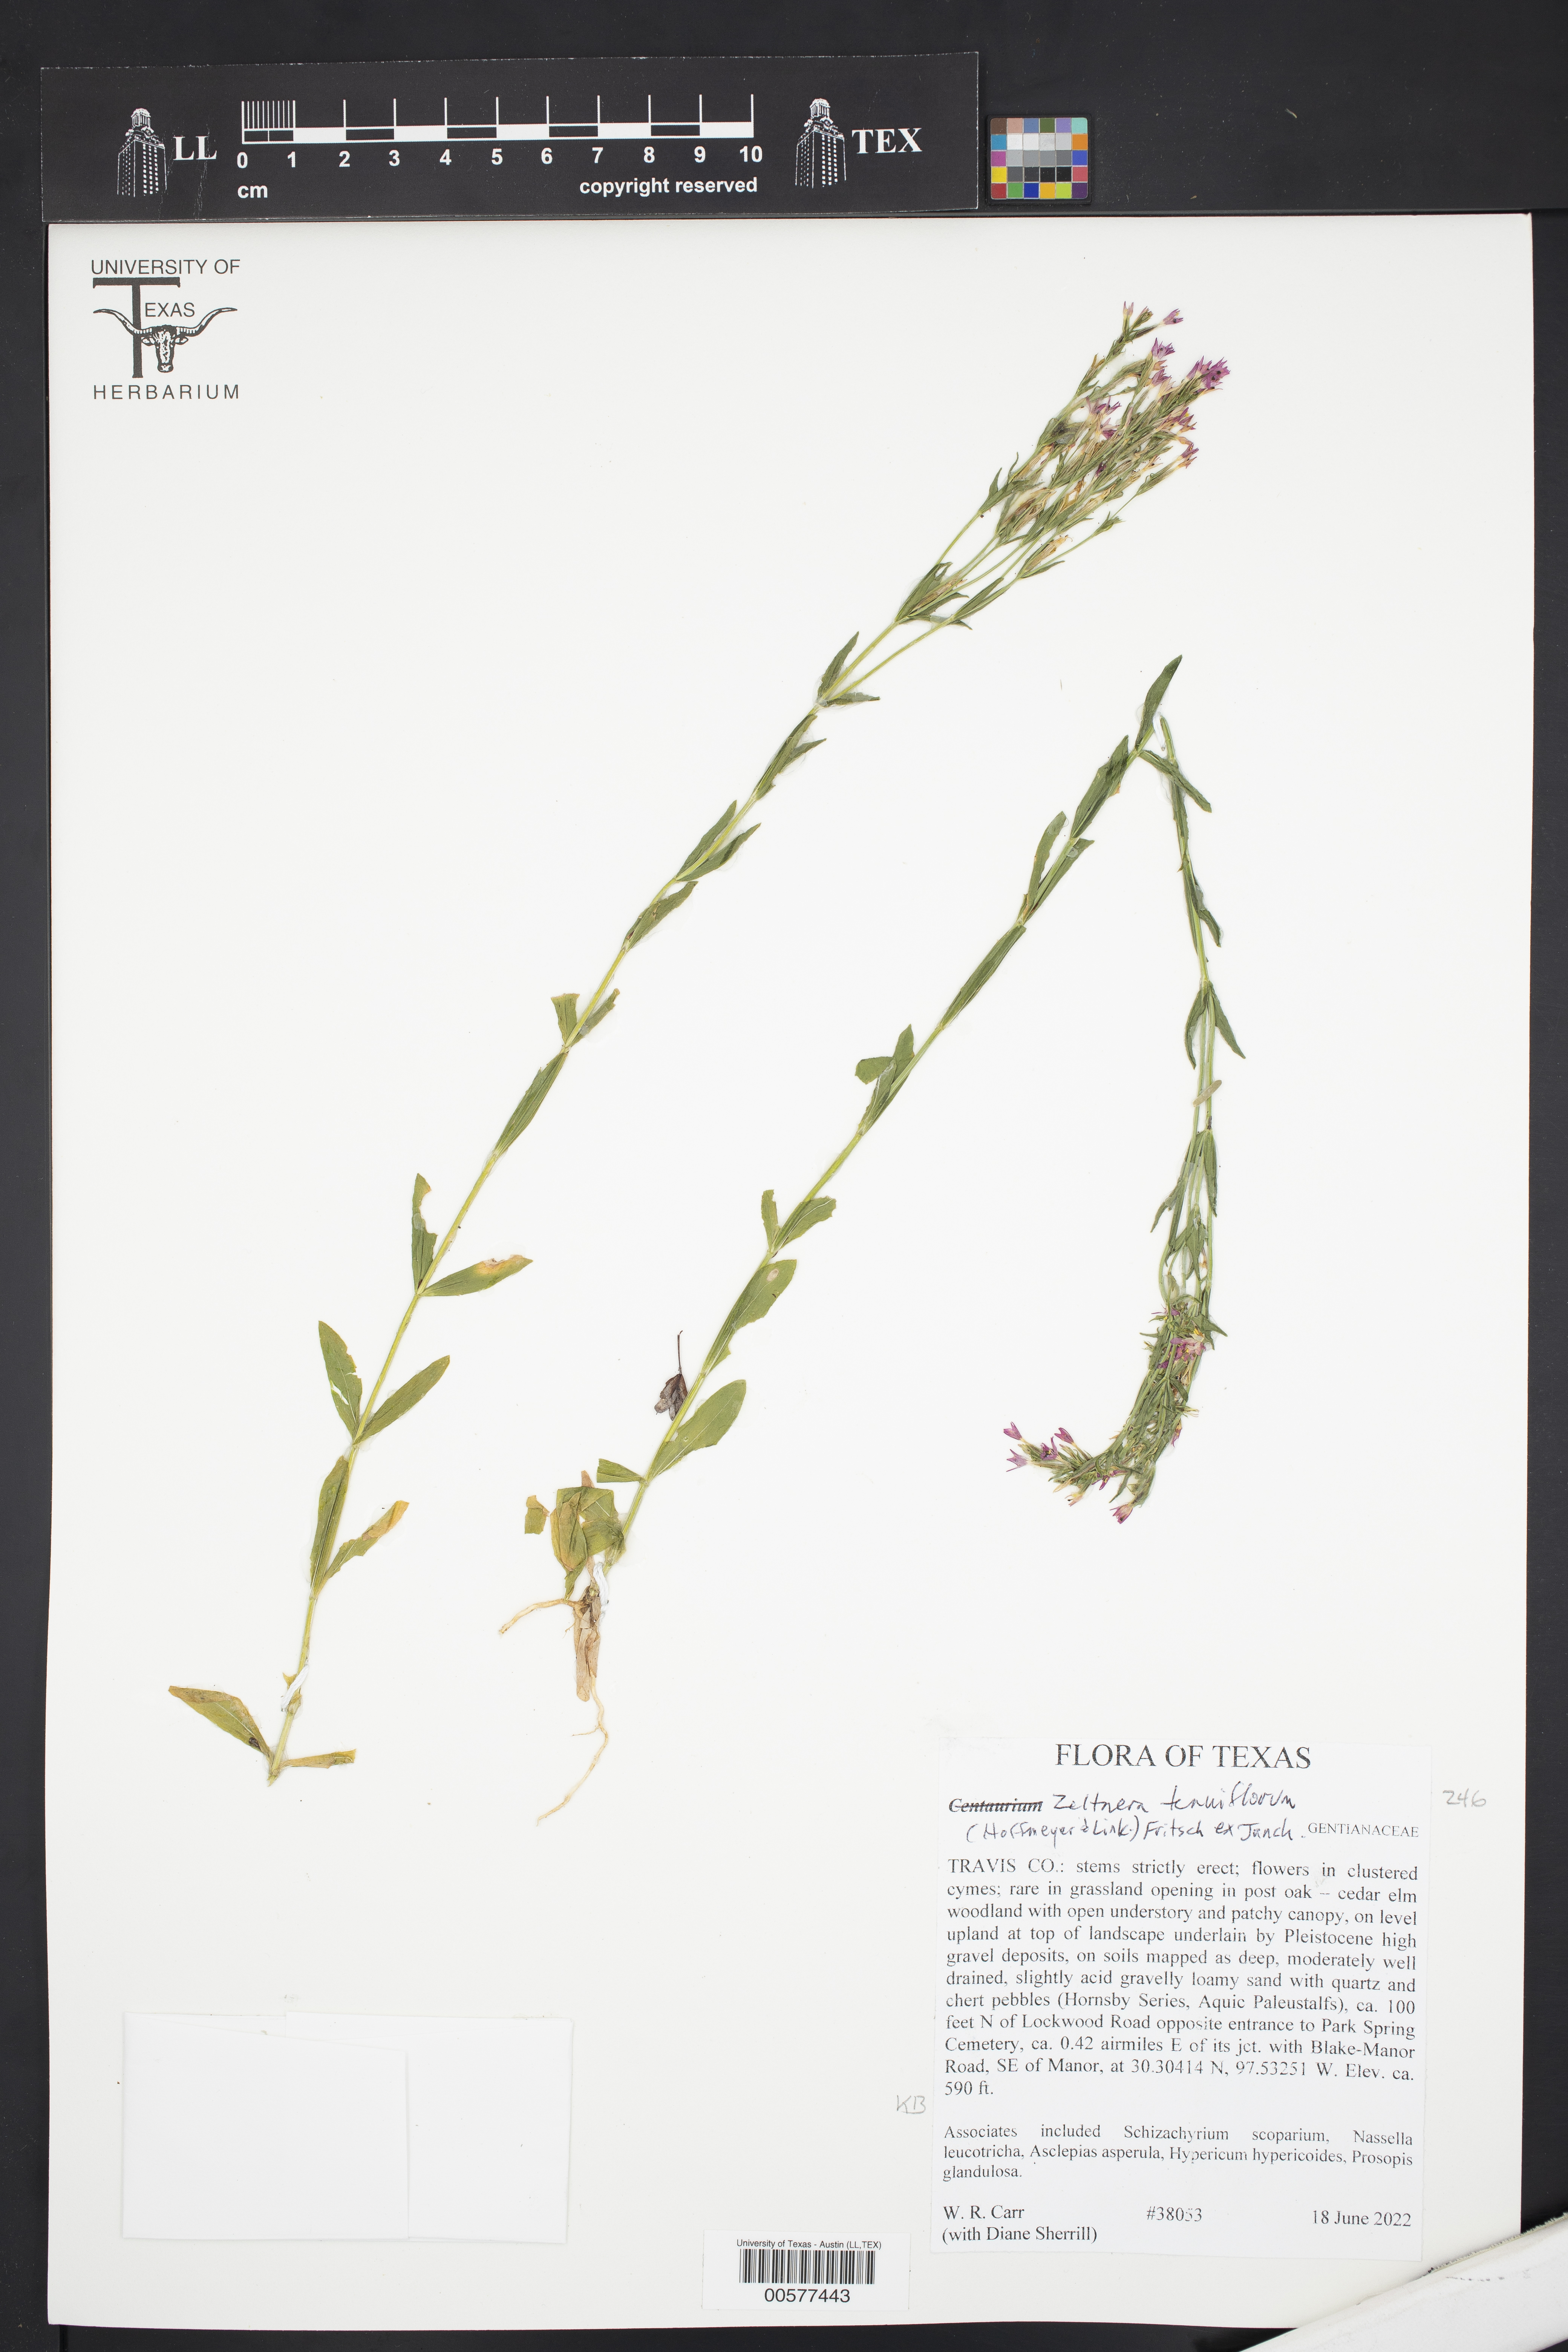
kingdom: Plantae
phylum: Tracheophyta
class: Magnoliopsida
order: Gentianales
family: Gentianaceae
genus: Zeltnera
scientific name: Zeltnera
